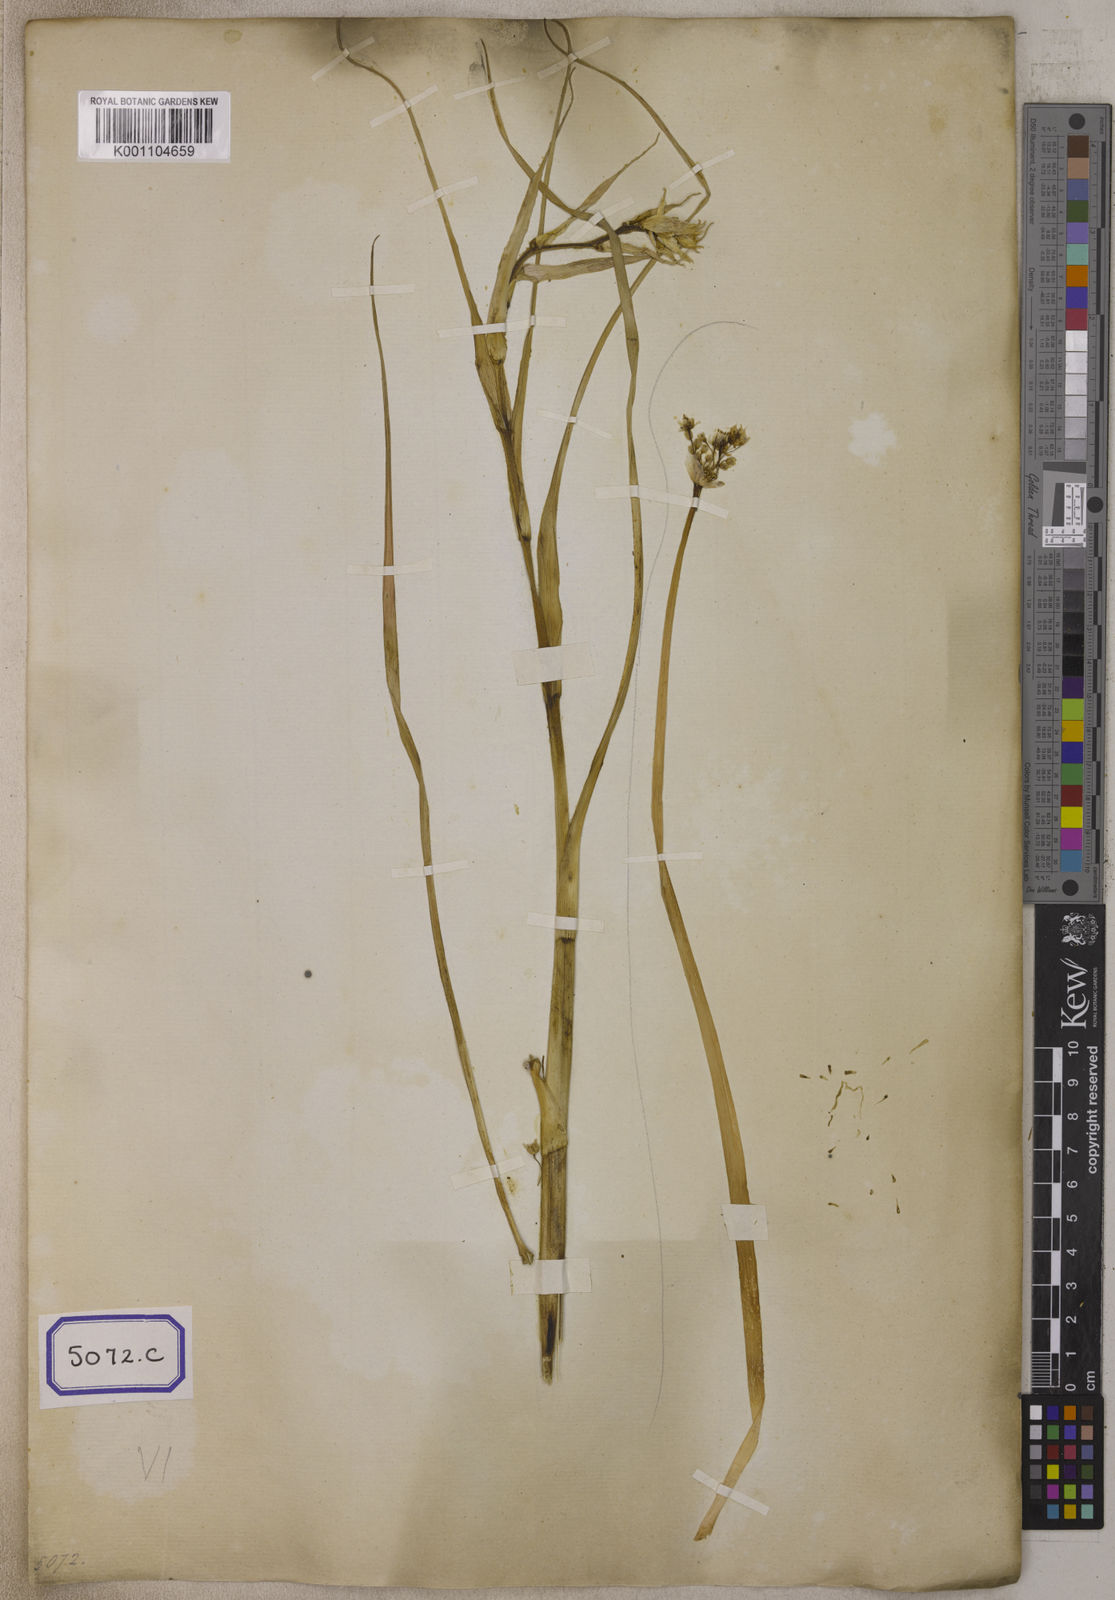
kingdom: Plantae
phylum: Tracheophyta
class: Liliopsida
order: Asparagales
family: Amaryllidaceae
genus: Allium
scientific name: Allium cepa
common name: Onion
